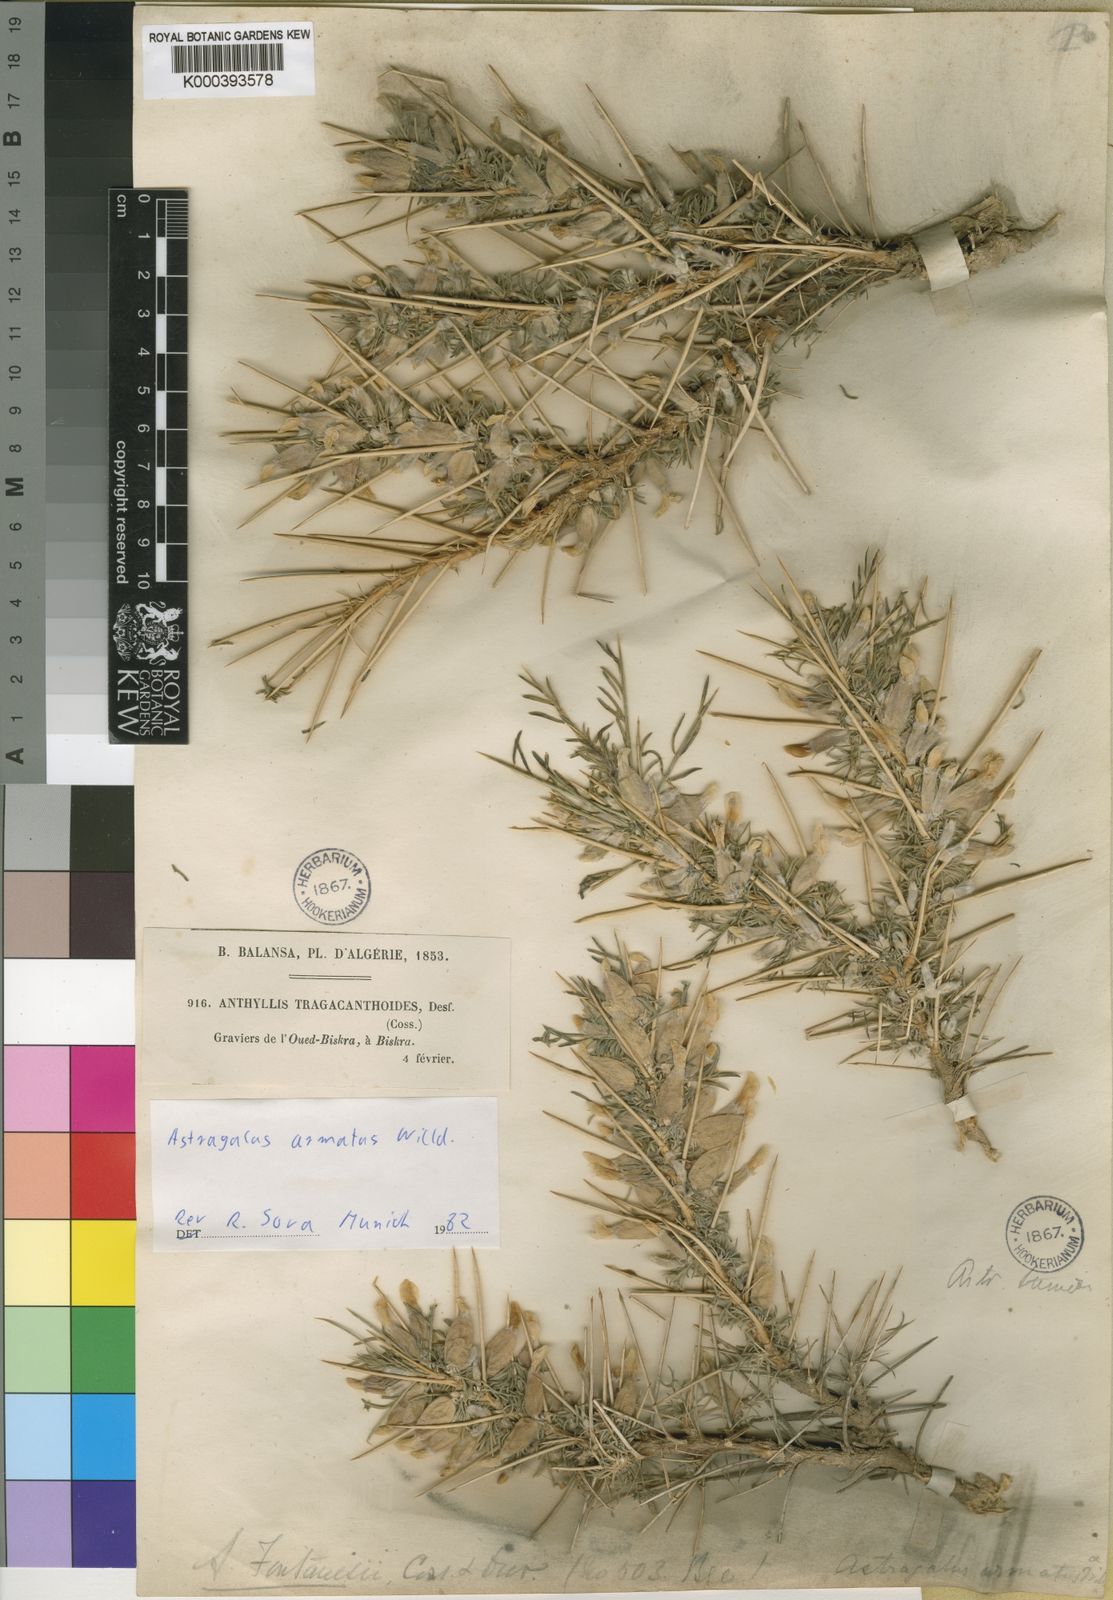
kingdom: Plantae
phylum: Tracheophyta
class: Magnoliopsida
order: Fabales
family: Fabaceae
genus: Astragalus
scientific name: Astragalus armatus
